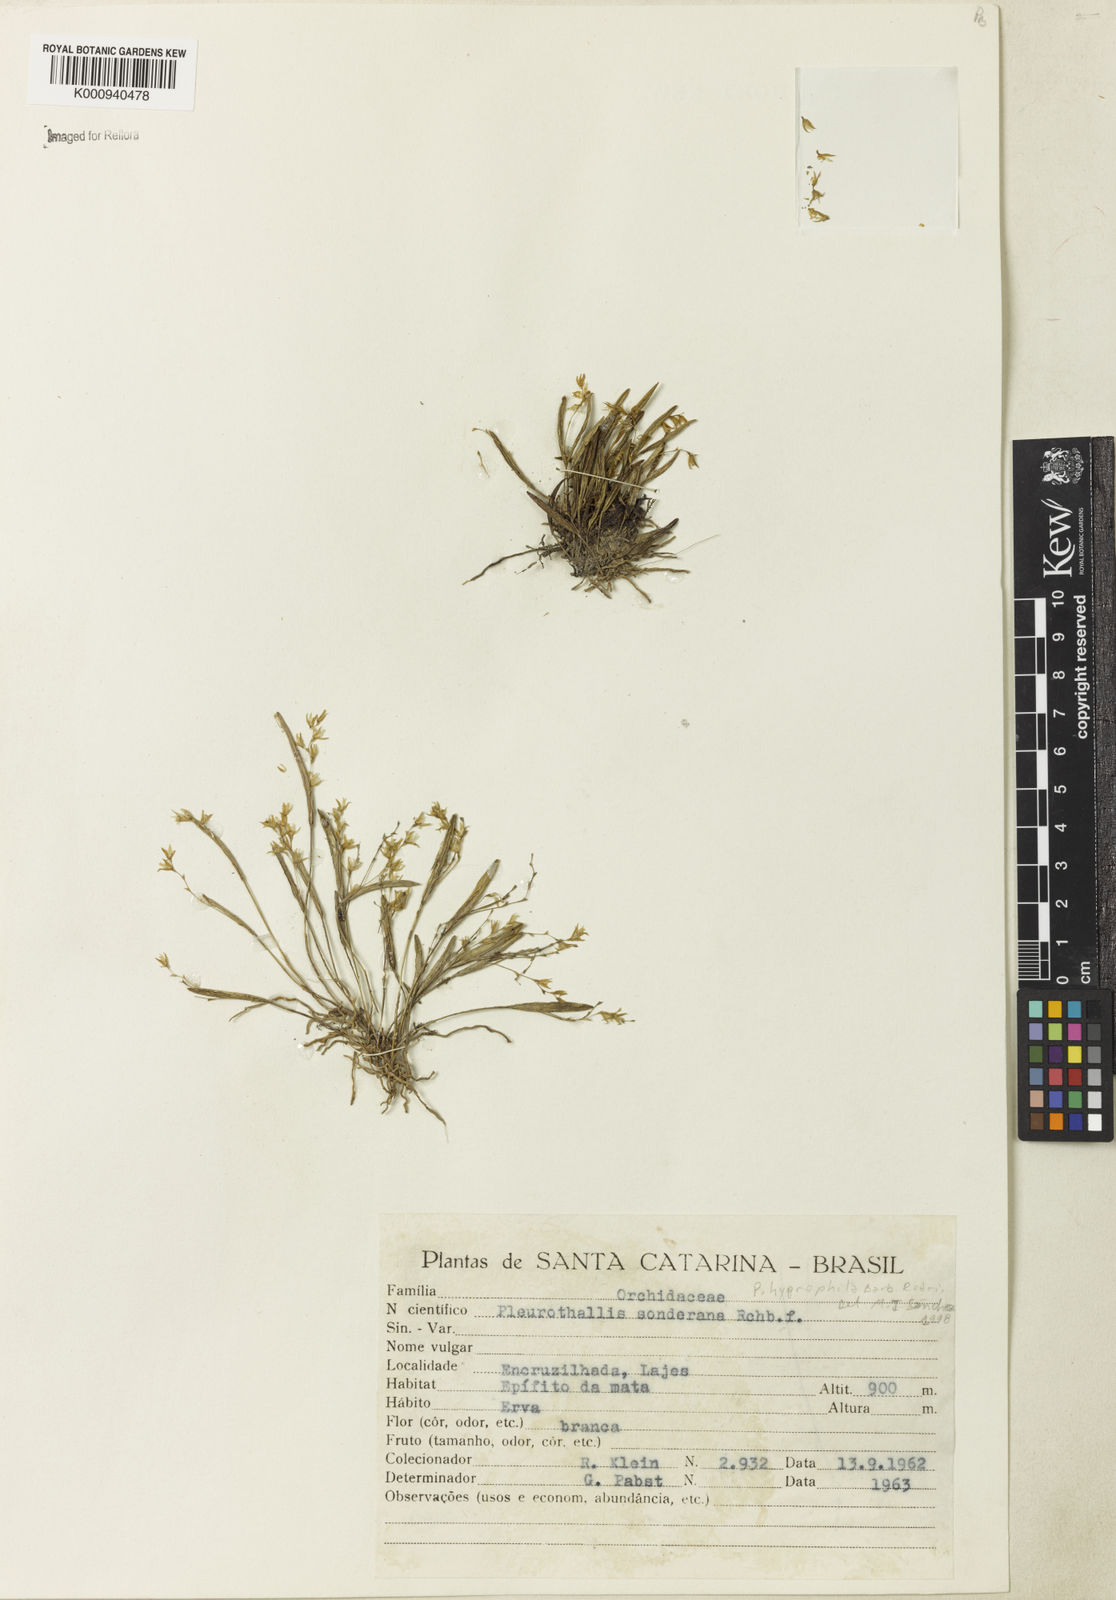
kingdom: Plantae
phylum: Tracheophyta
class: Liliopsida
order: Asparagales
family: Orchidaceae
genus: Acianthera
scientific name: Acianthera sonderiana
